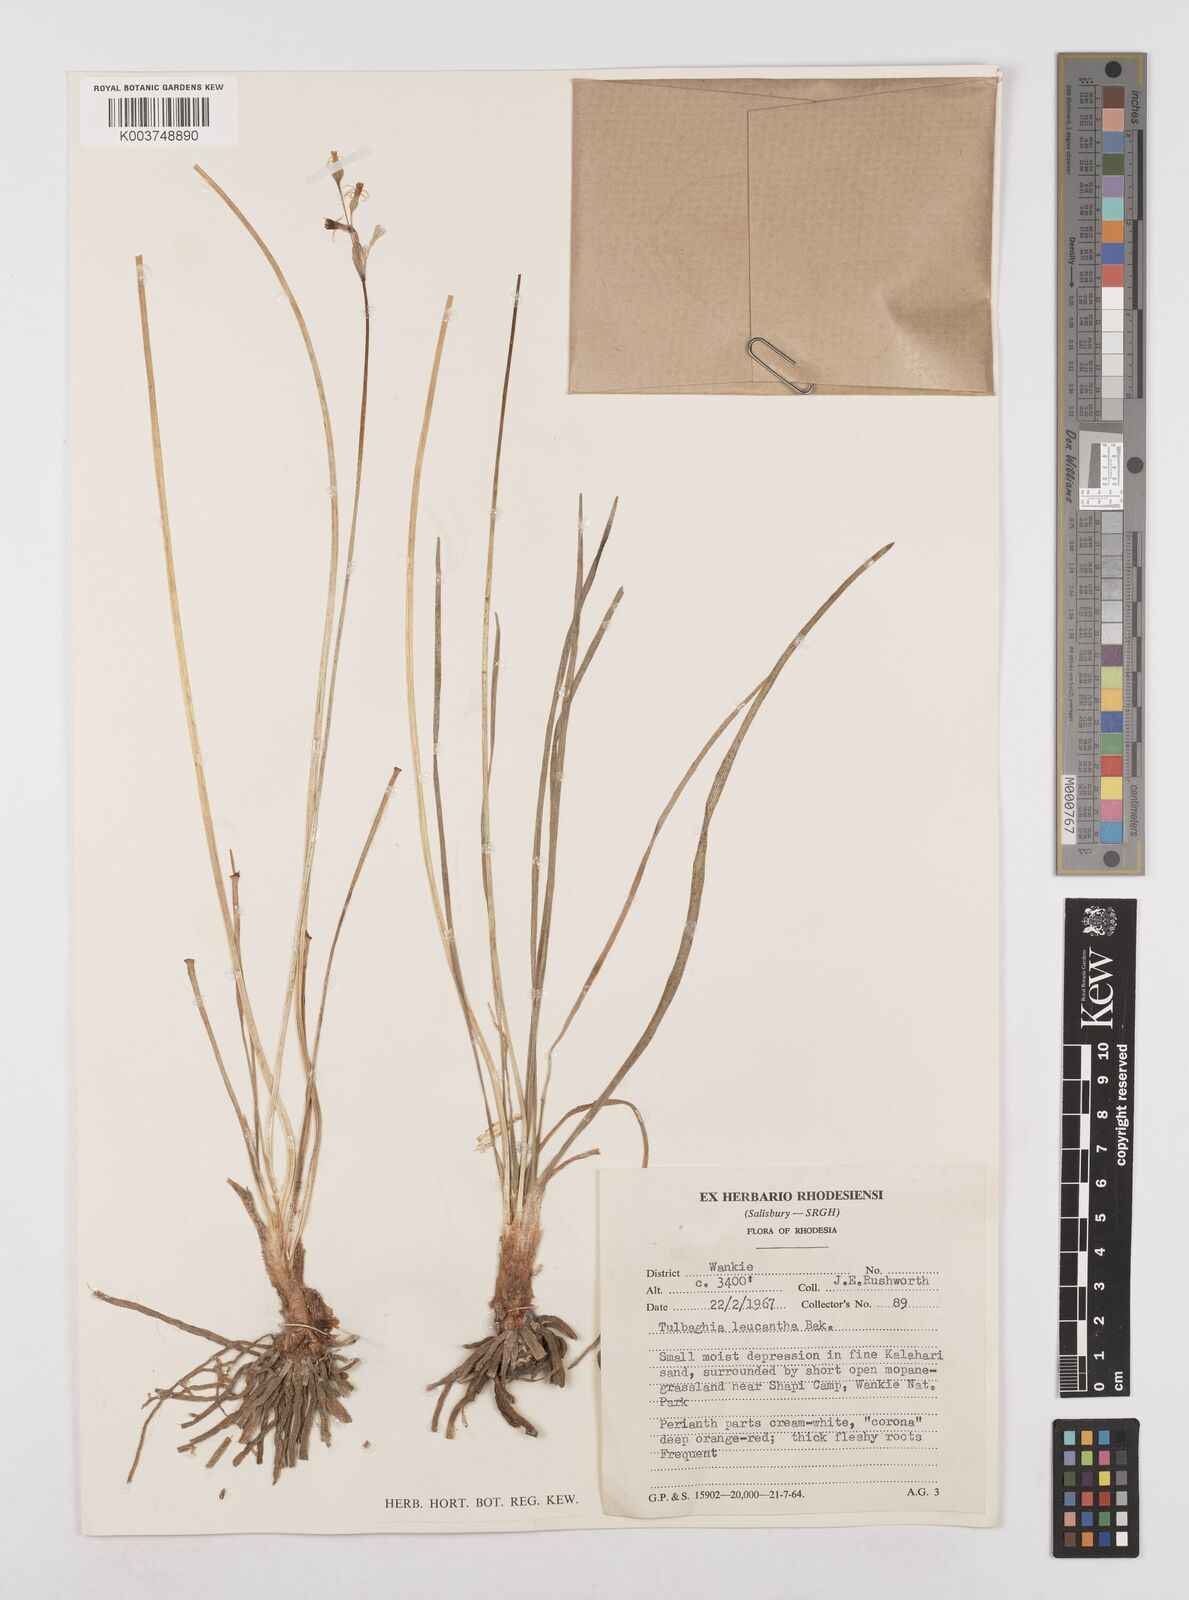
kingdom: Plantae
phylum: Tracheophyta
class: Liliopsida
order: Asparagales
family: Amaryllidaceae
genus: Tulbaghia
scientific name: Tulbaghia leucantha
